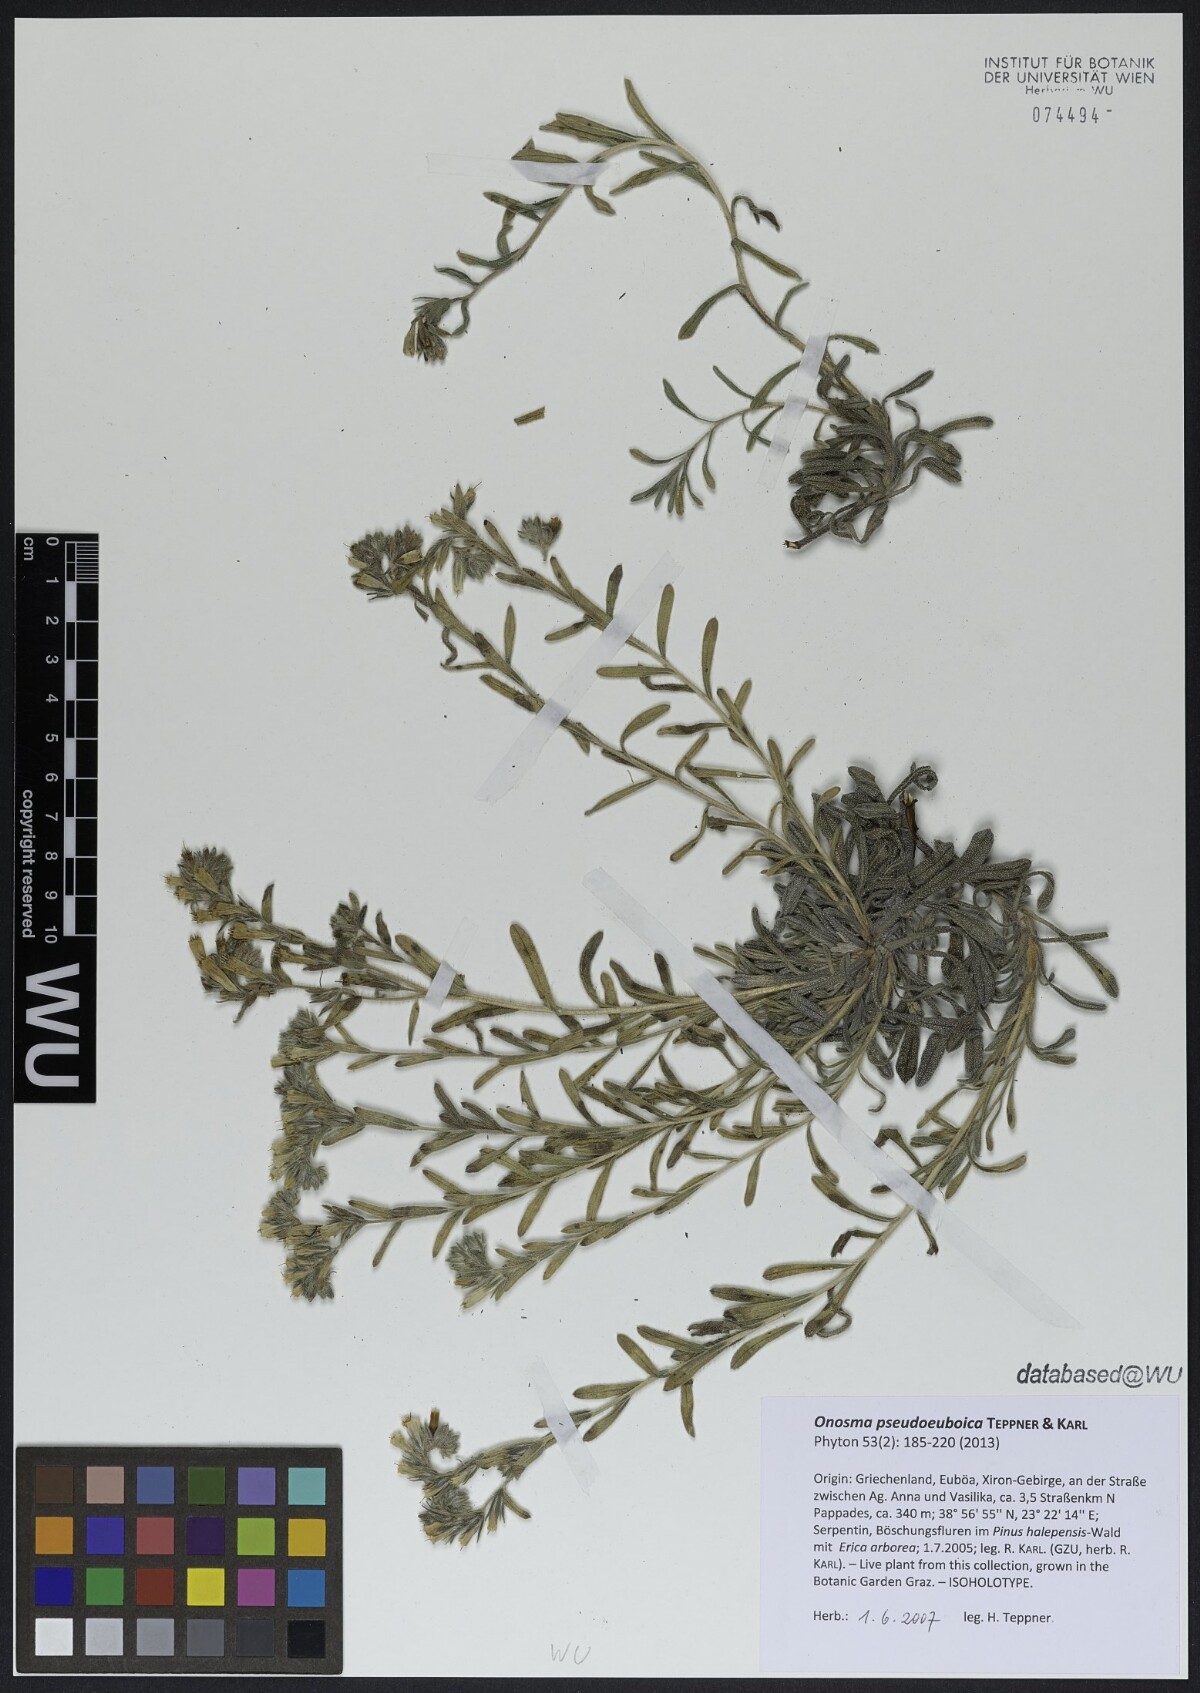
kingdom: Plantae
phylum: Tracheophyta
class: Magnoliopsida
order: Boraginales
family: Boraginaceae
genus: Onosma
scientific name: Onosma pseudoeuboica
